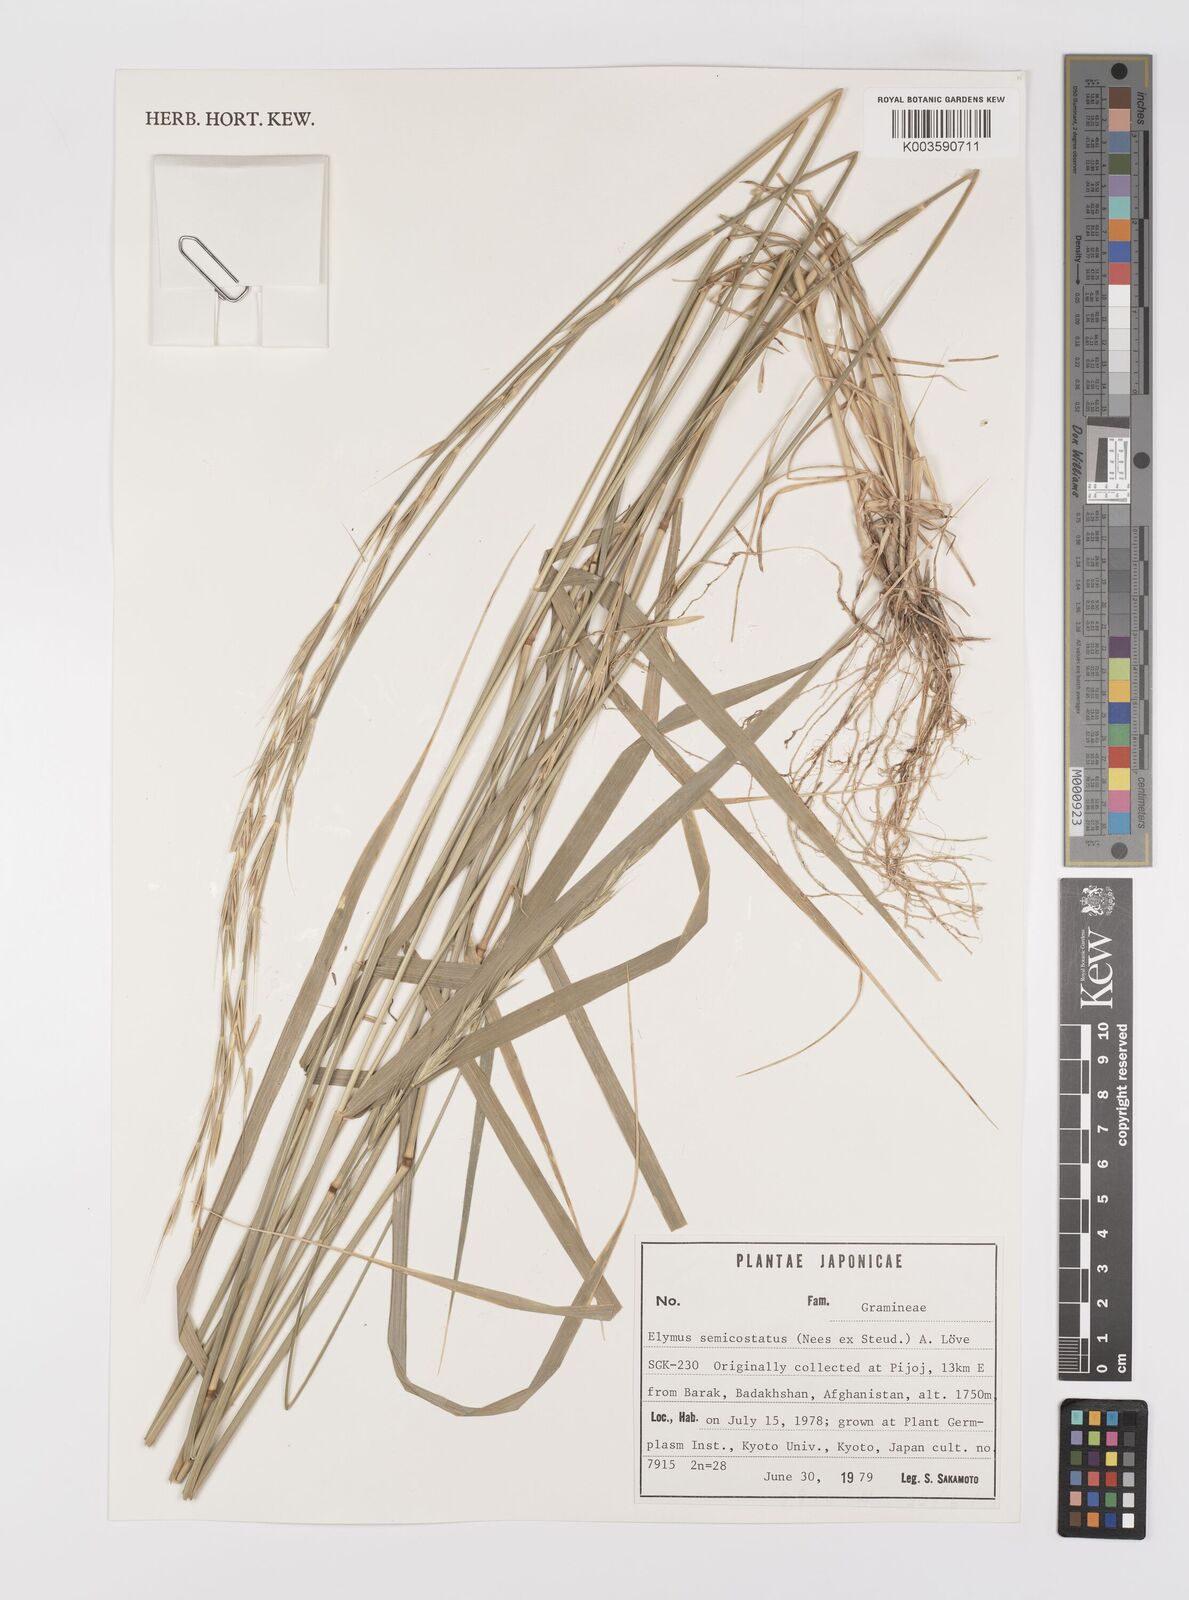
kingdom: Plantae
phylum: Tracheophyta
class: Liliopsida
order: Poales
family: Poaceae
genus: Elymus
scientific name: Elymus semicostatus
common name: Drooping wildrye
